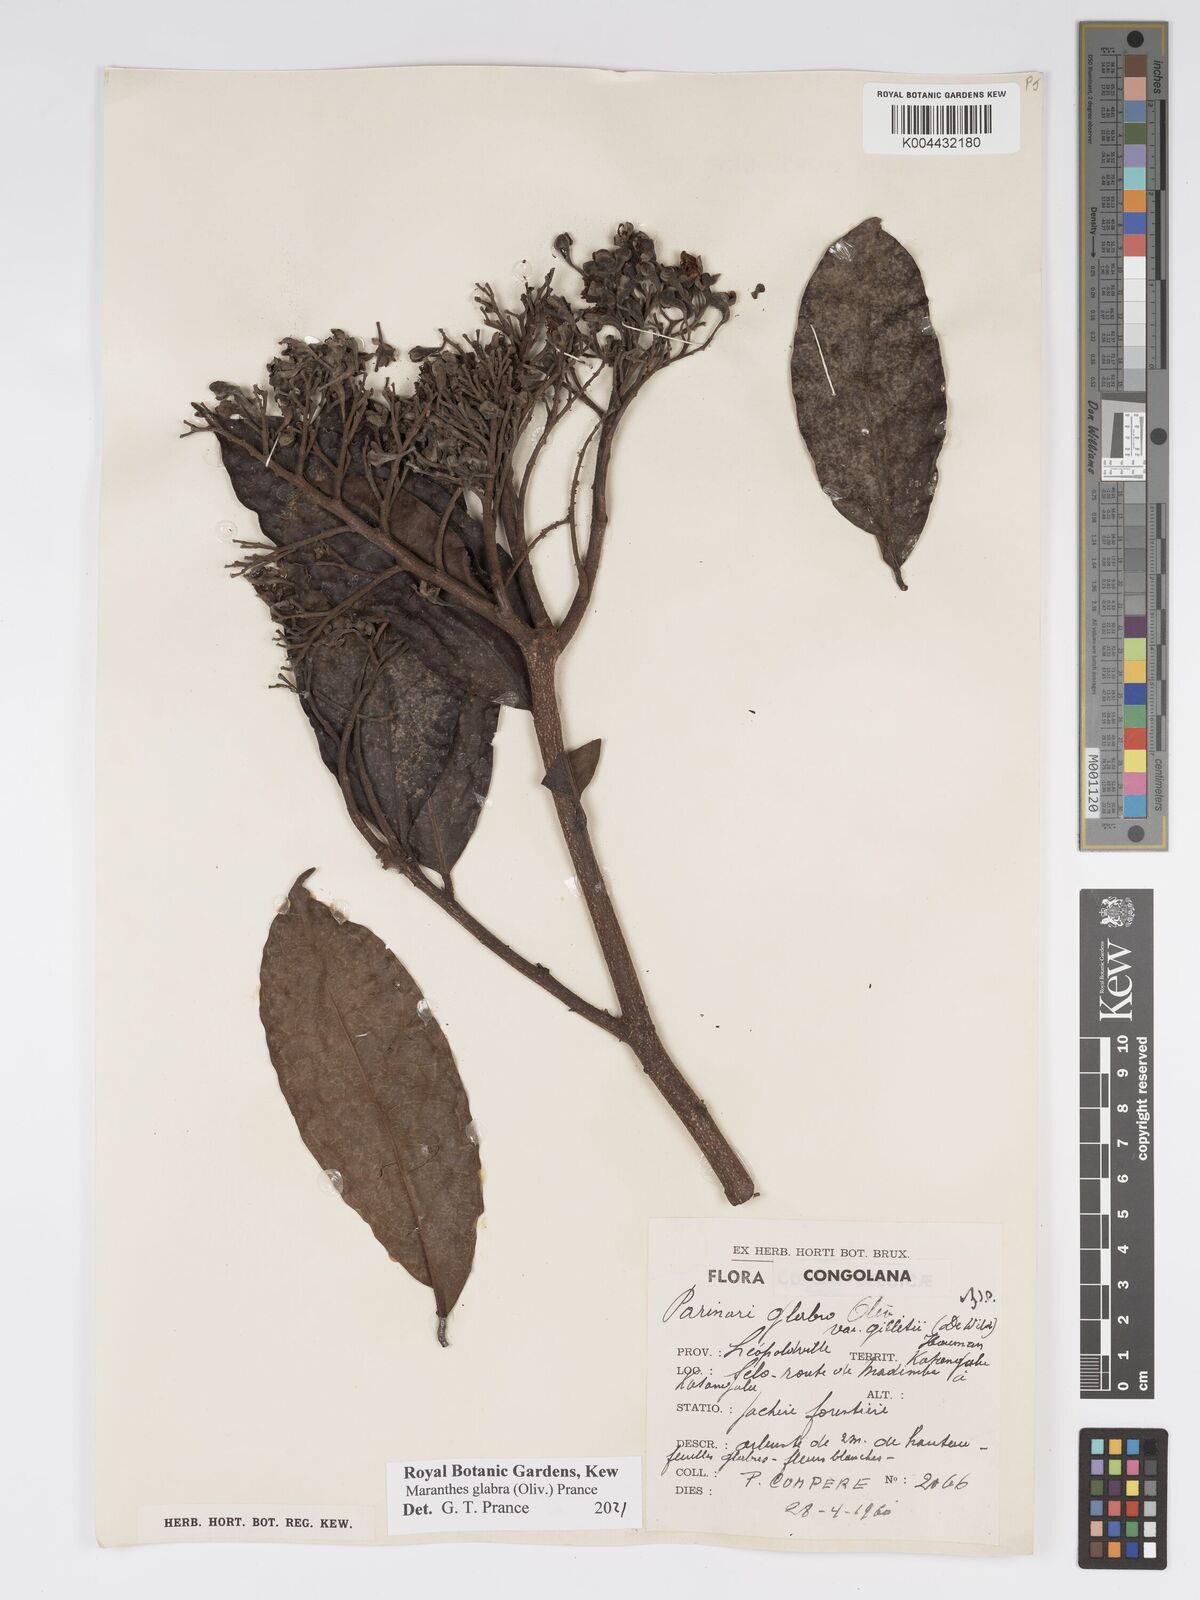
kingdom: Plantae
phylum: Tracheophyta
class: Magnoliopsida
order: Malpighiales
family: Chrysobalanaceae
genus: Maranthes
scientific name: Maranthes glabra
